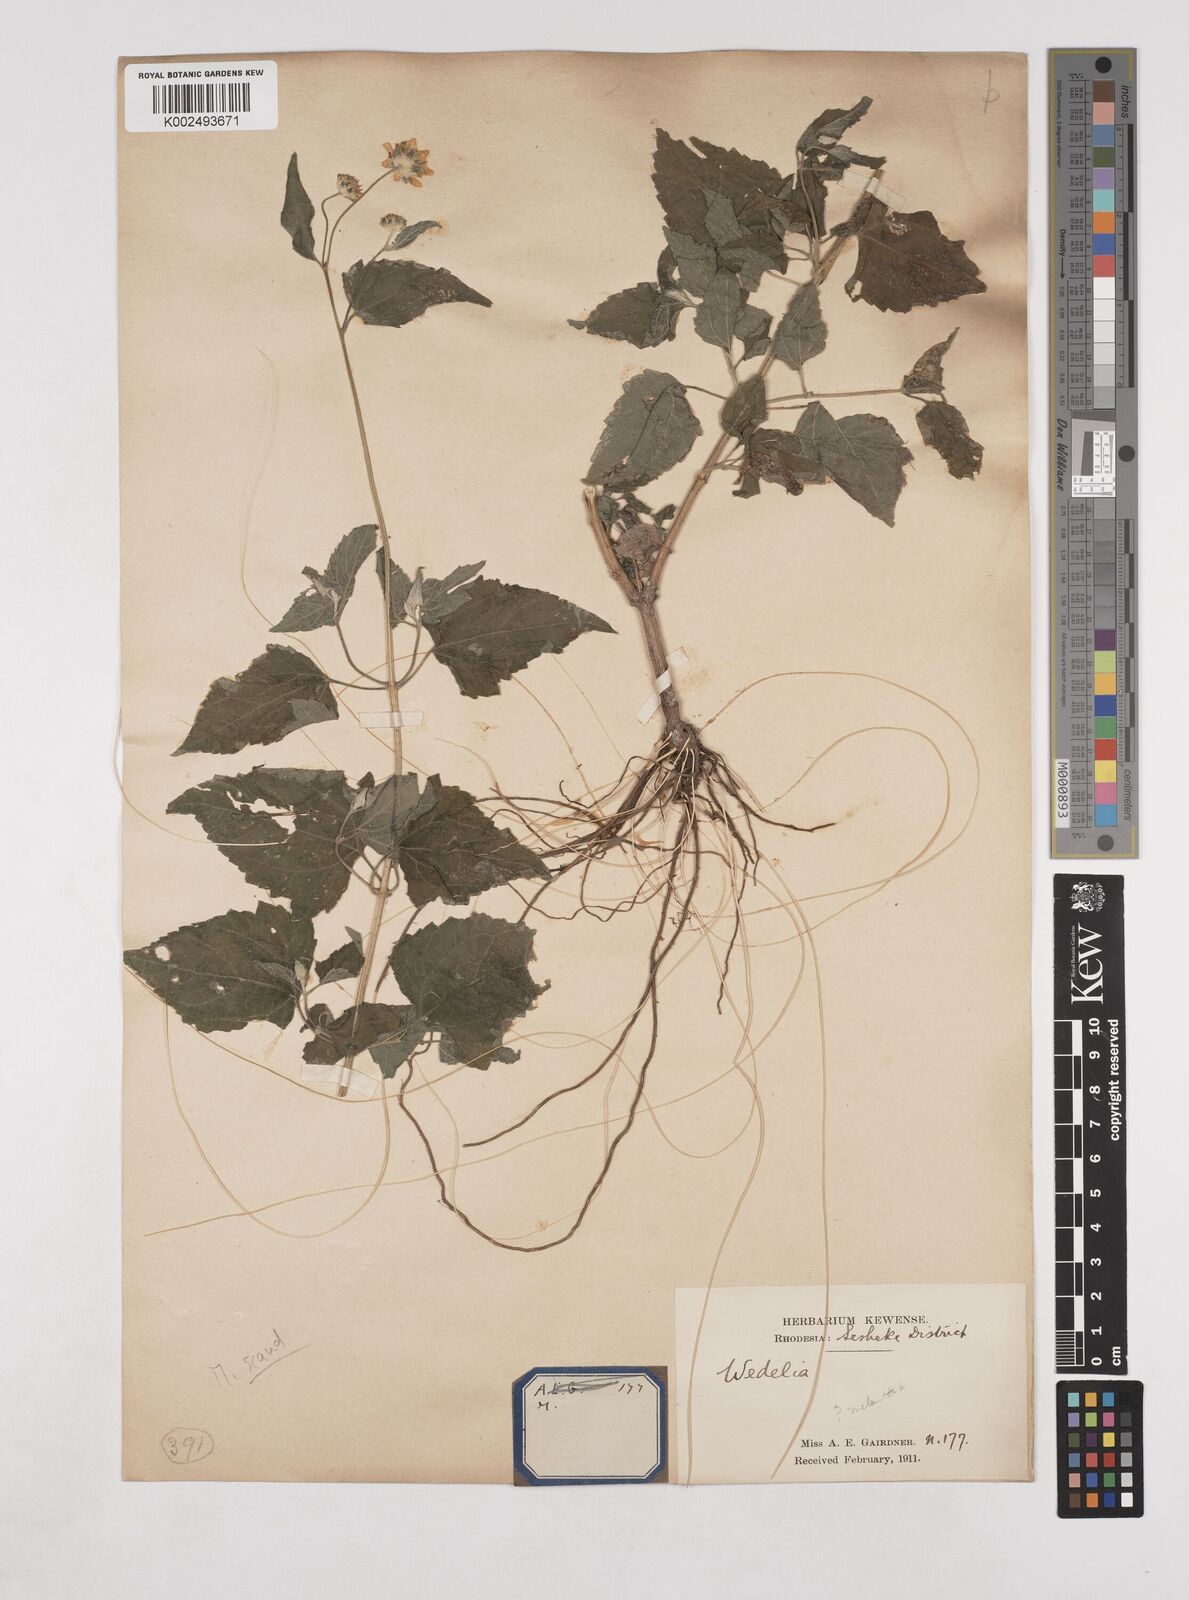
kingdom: Plantae
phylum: Tracheophyta
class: Magnoliopsida
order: Asterales
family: Asteraceae
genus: Lipotriche
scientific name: Lipotriche marlothiana
